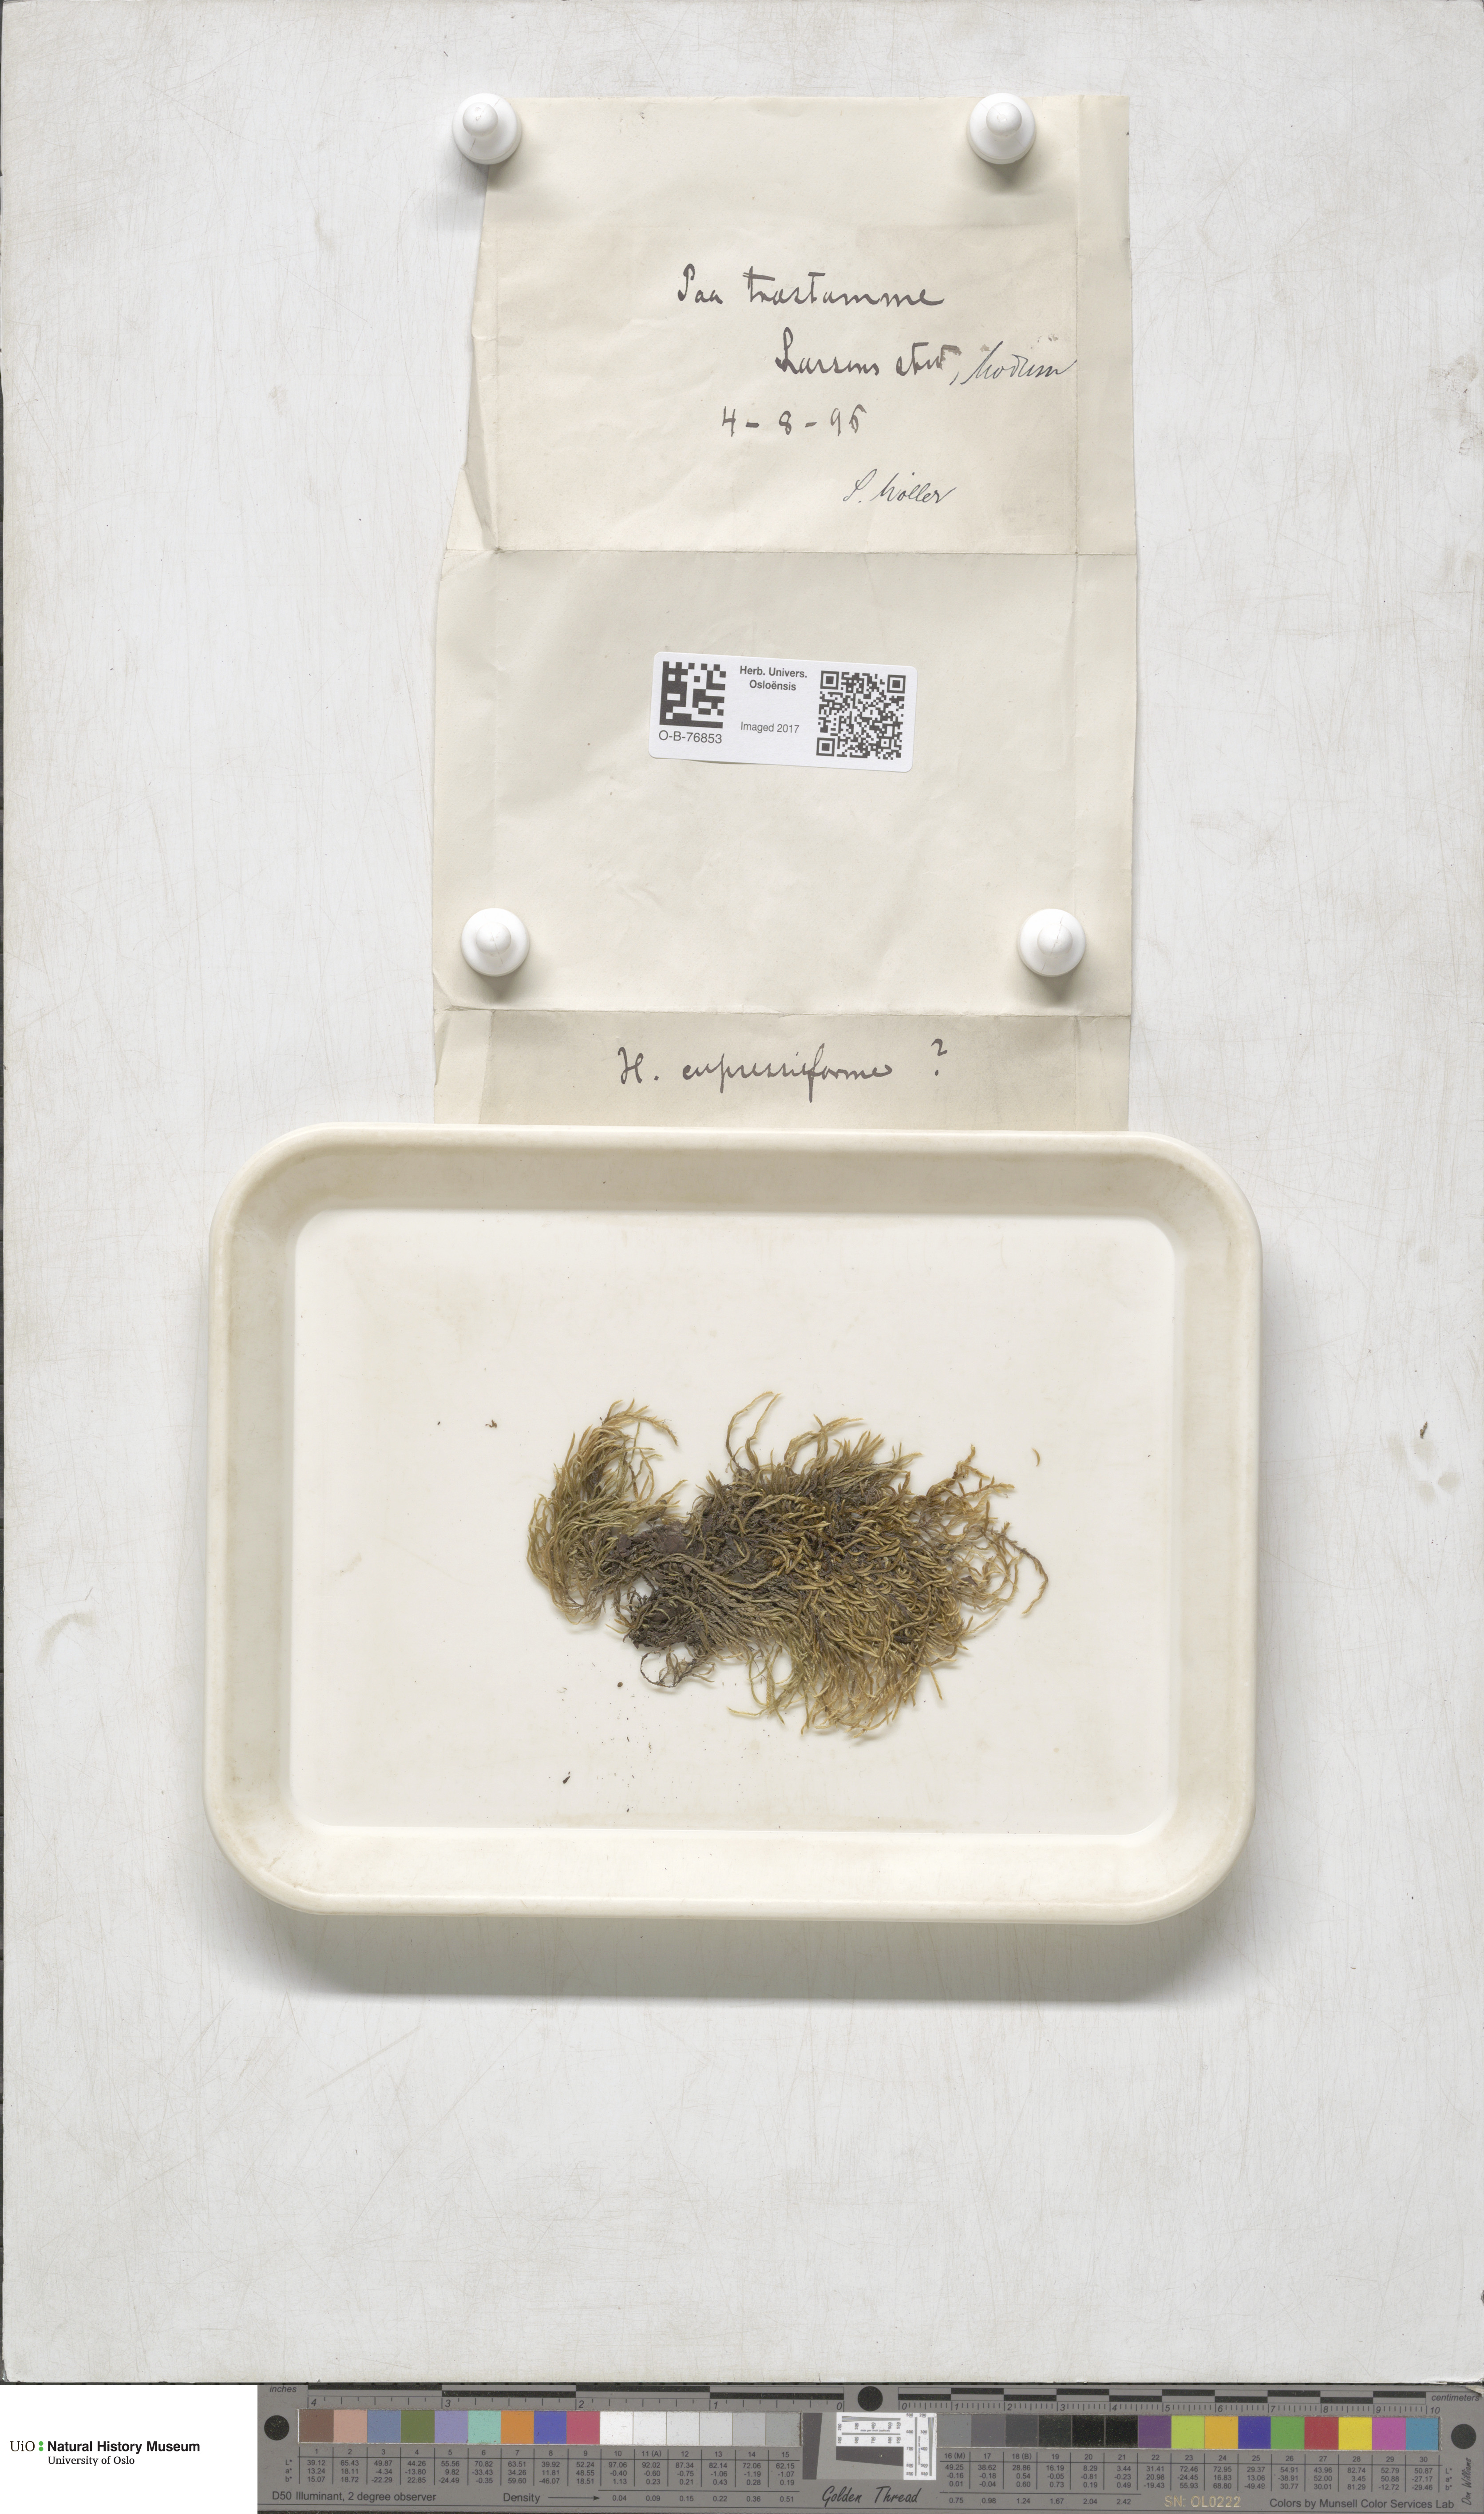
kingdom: Plantae
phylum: Bryophyta
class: Bryopsida
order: Hypnales
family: Hypnaceae
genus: Hypnum
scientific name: Hypnum cupressiforme
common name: Cypress-leaved plait-moss
